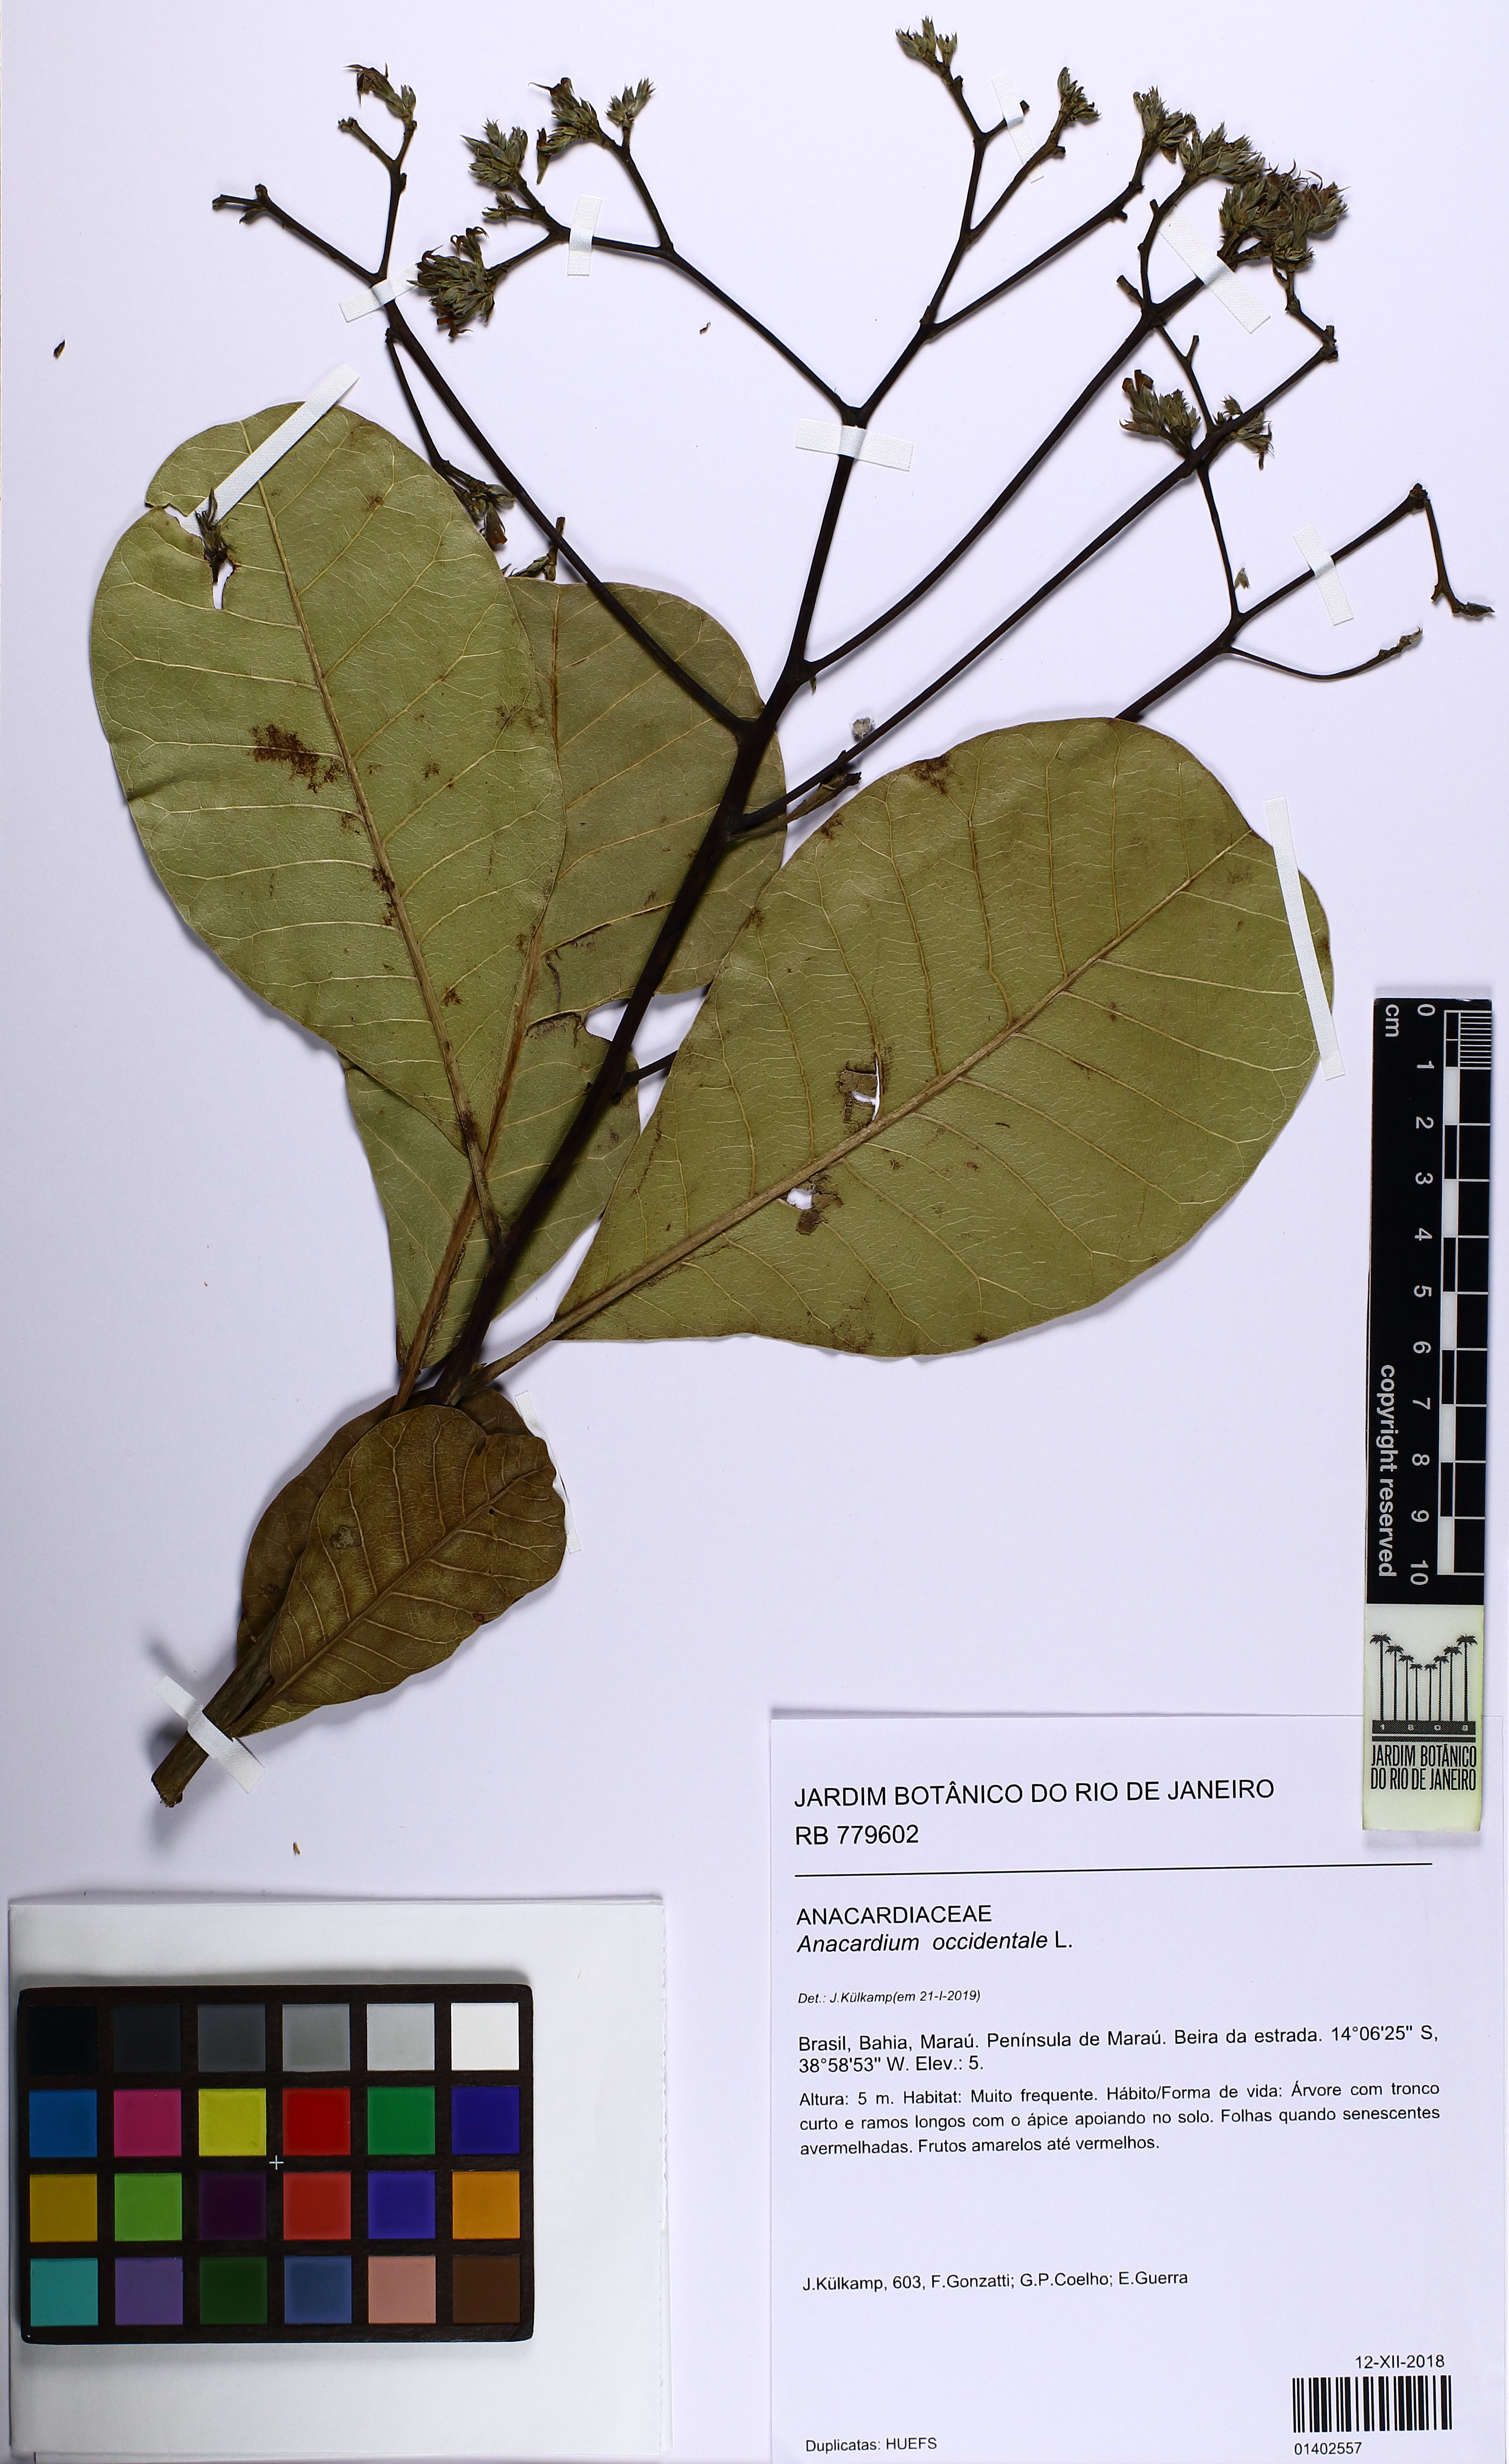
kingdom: Plantae
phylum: Tracheophyta
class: Magnoliopsida
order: Sapindales
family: Anacardiaceae
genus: Anacardium
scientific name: Anacardium occidentale
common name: Cashew
